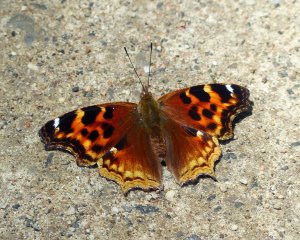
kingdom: Animalia
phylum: Arthropoda
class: Insecta
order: Lepidoptera
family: Nymphalidae
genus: Polygonia
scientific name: Polygonia vaualbum
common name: Compton Tortoiseshell
